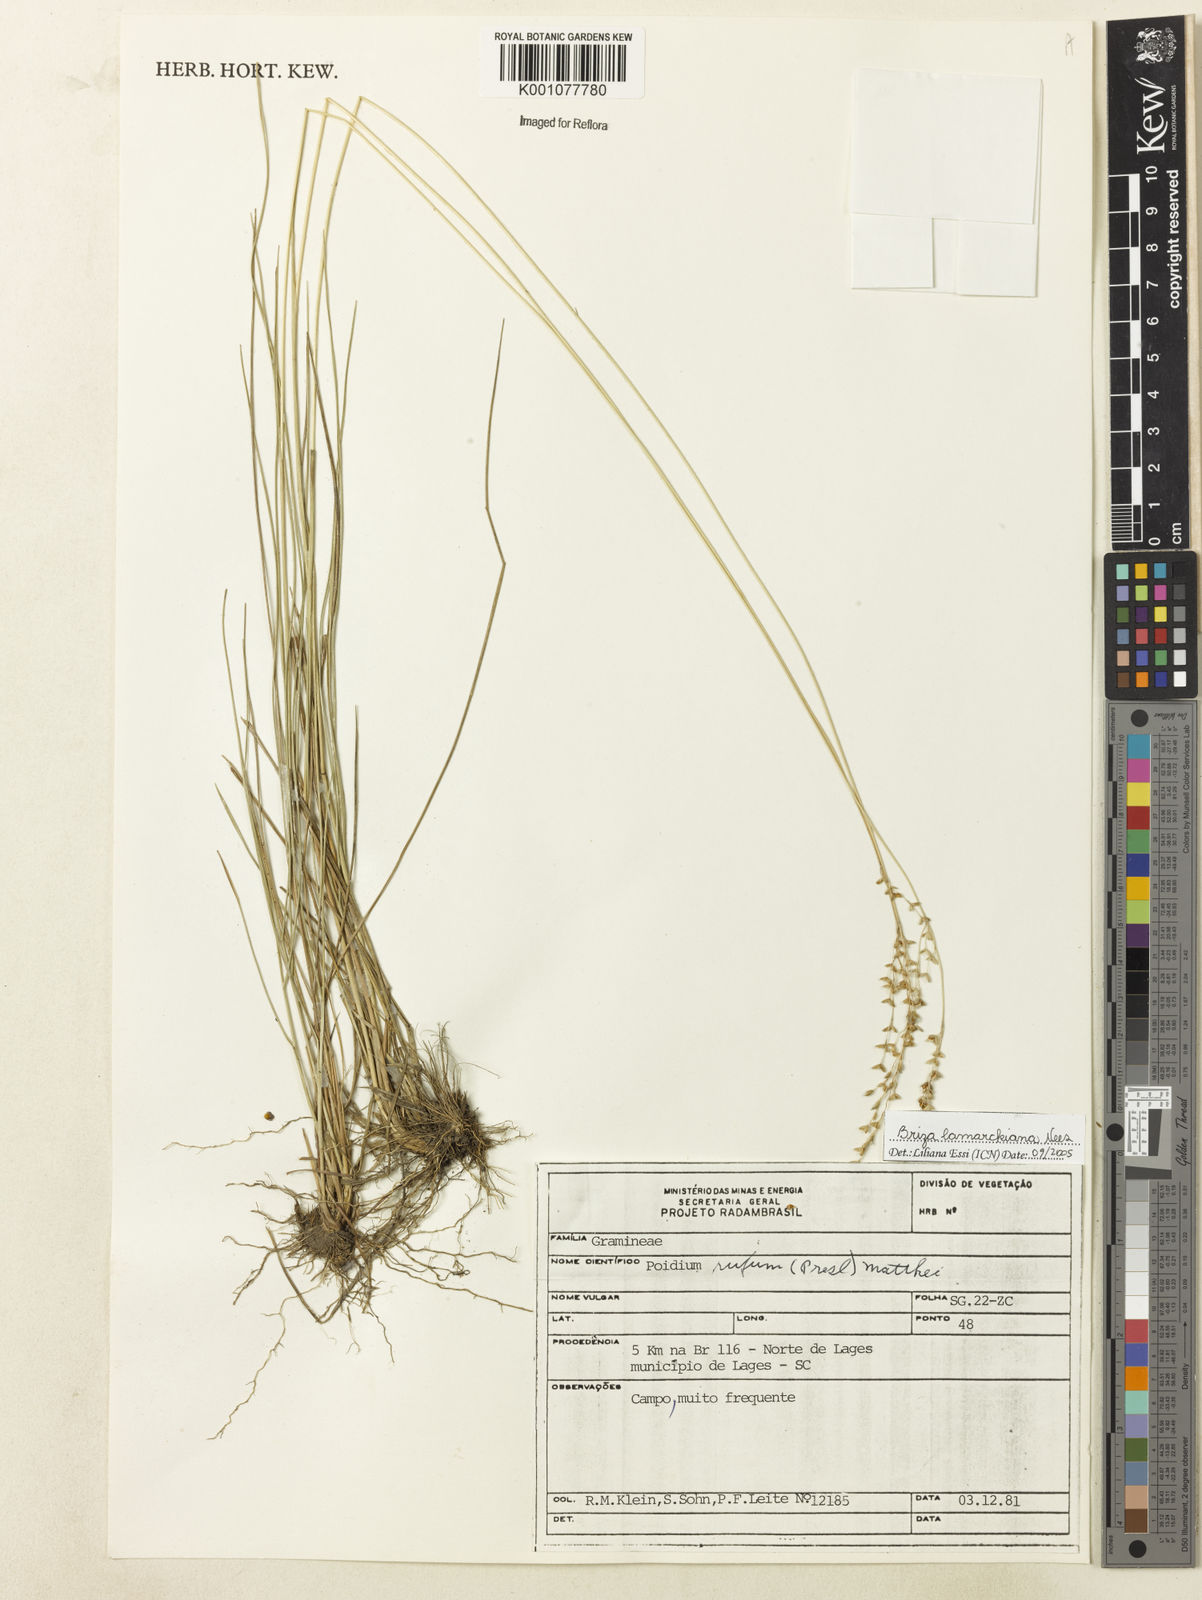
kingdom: Plantae
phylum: Tracheophyta
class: Liliopsida
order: Poales
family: Poaceae
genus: Chascolytrum
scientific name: Chascolytrum lamarckianum
